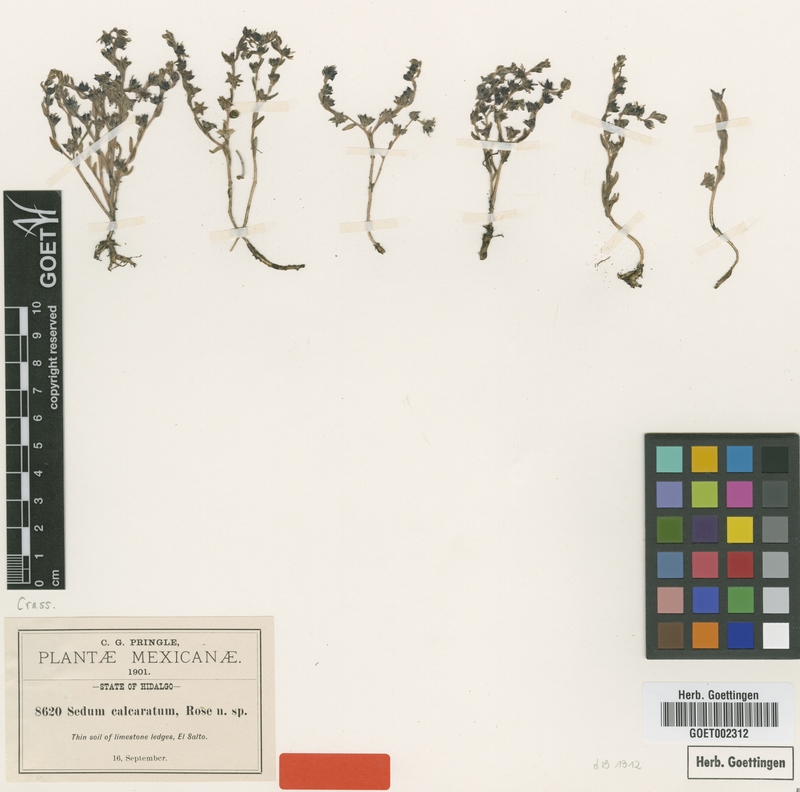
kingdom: Plantae
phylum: Tracheophyta
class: Magnoliopsida
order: Saxifragales
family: Crassulaceae
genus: Sedum
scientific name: Sedum calcaratum
